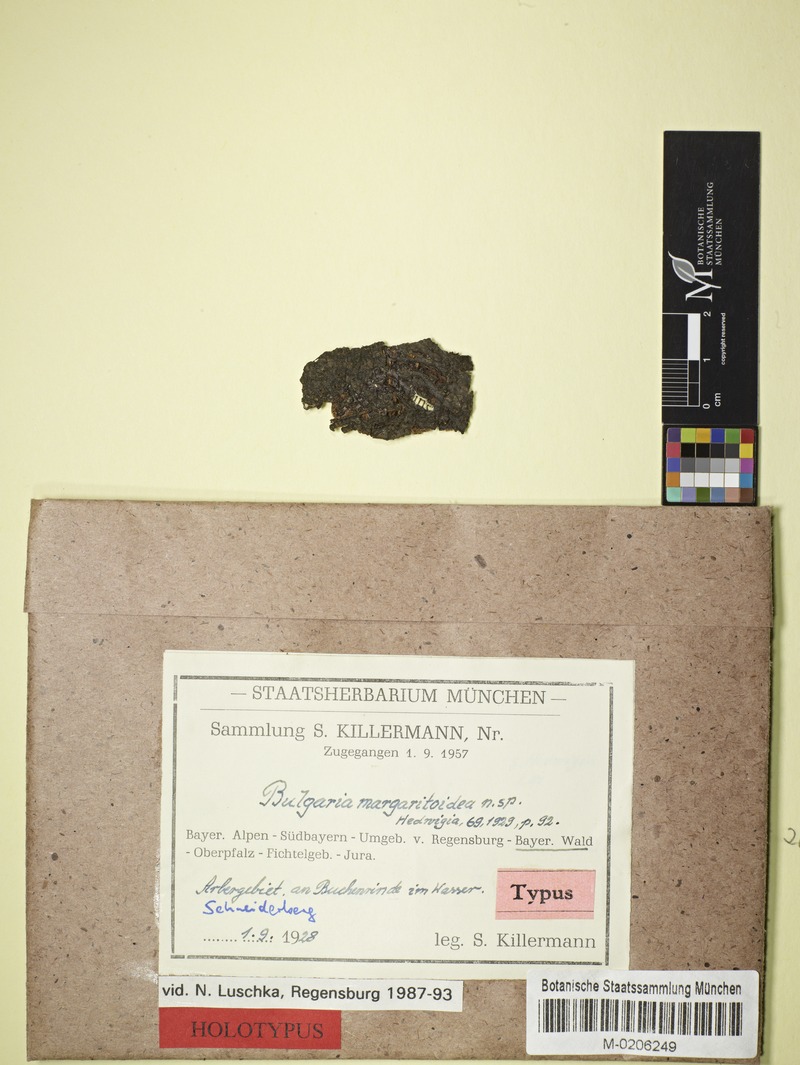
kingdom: Fungi
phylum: Ascomycota
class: Leotiomycetes
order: Helotiales
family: Gelatinodiscaceae
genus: Neobulgaria
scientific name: Neobulgaria margaritoidea
